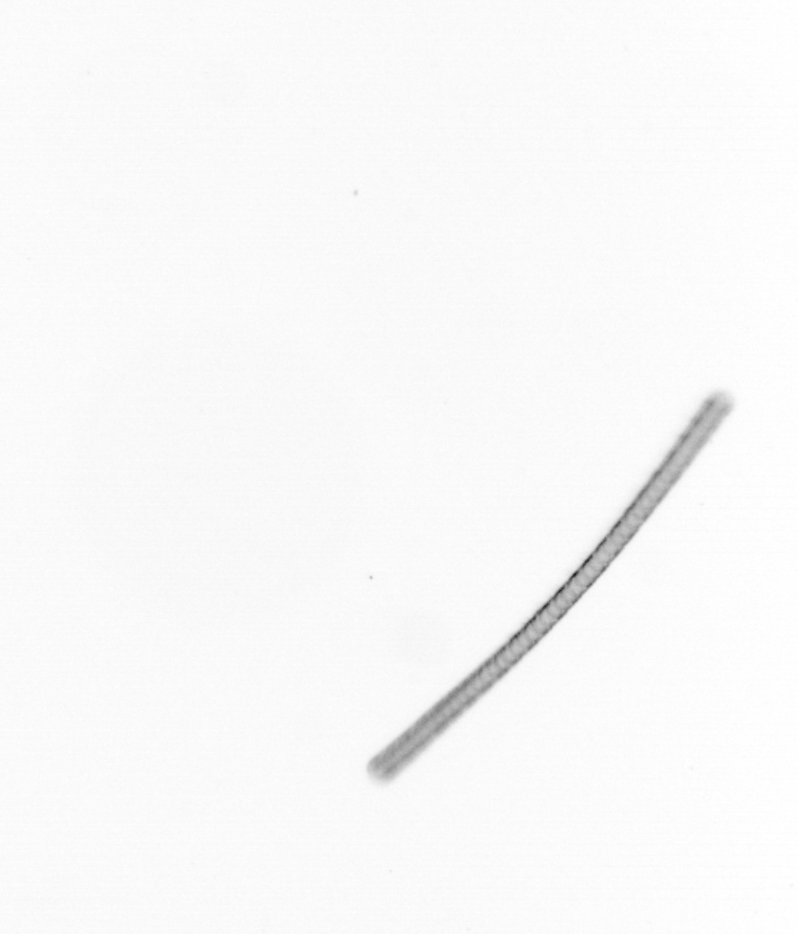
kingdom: Chromista
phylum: Ochrophyta
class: Bacillariophyceae
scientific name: Bacillariophyceae
